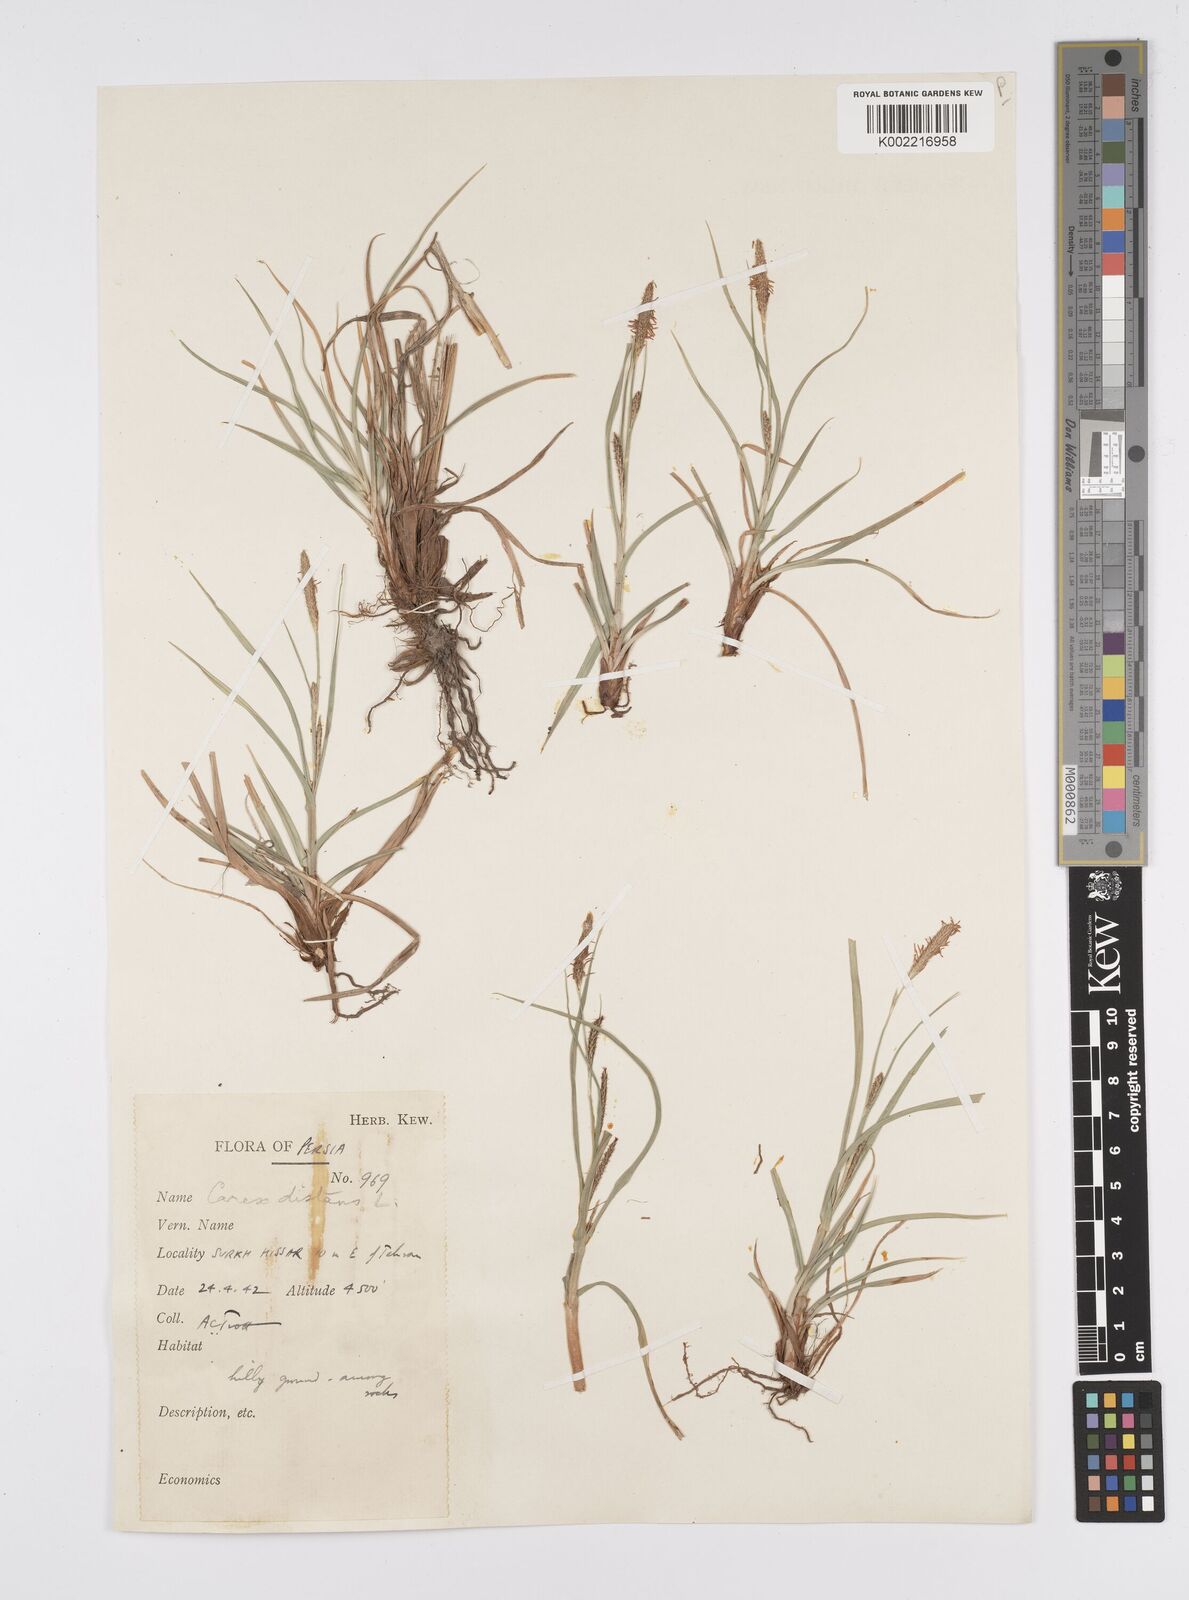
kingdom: Plantae
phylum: Tracheophyta
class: Liliopsida
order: Poales
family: Cyperaceae
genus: Carex
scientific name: Carex distans
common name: Distant sedge
